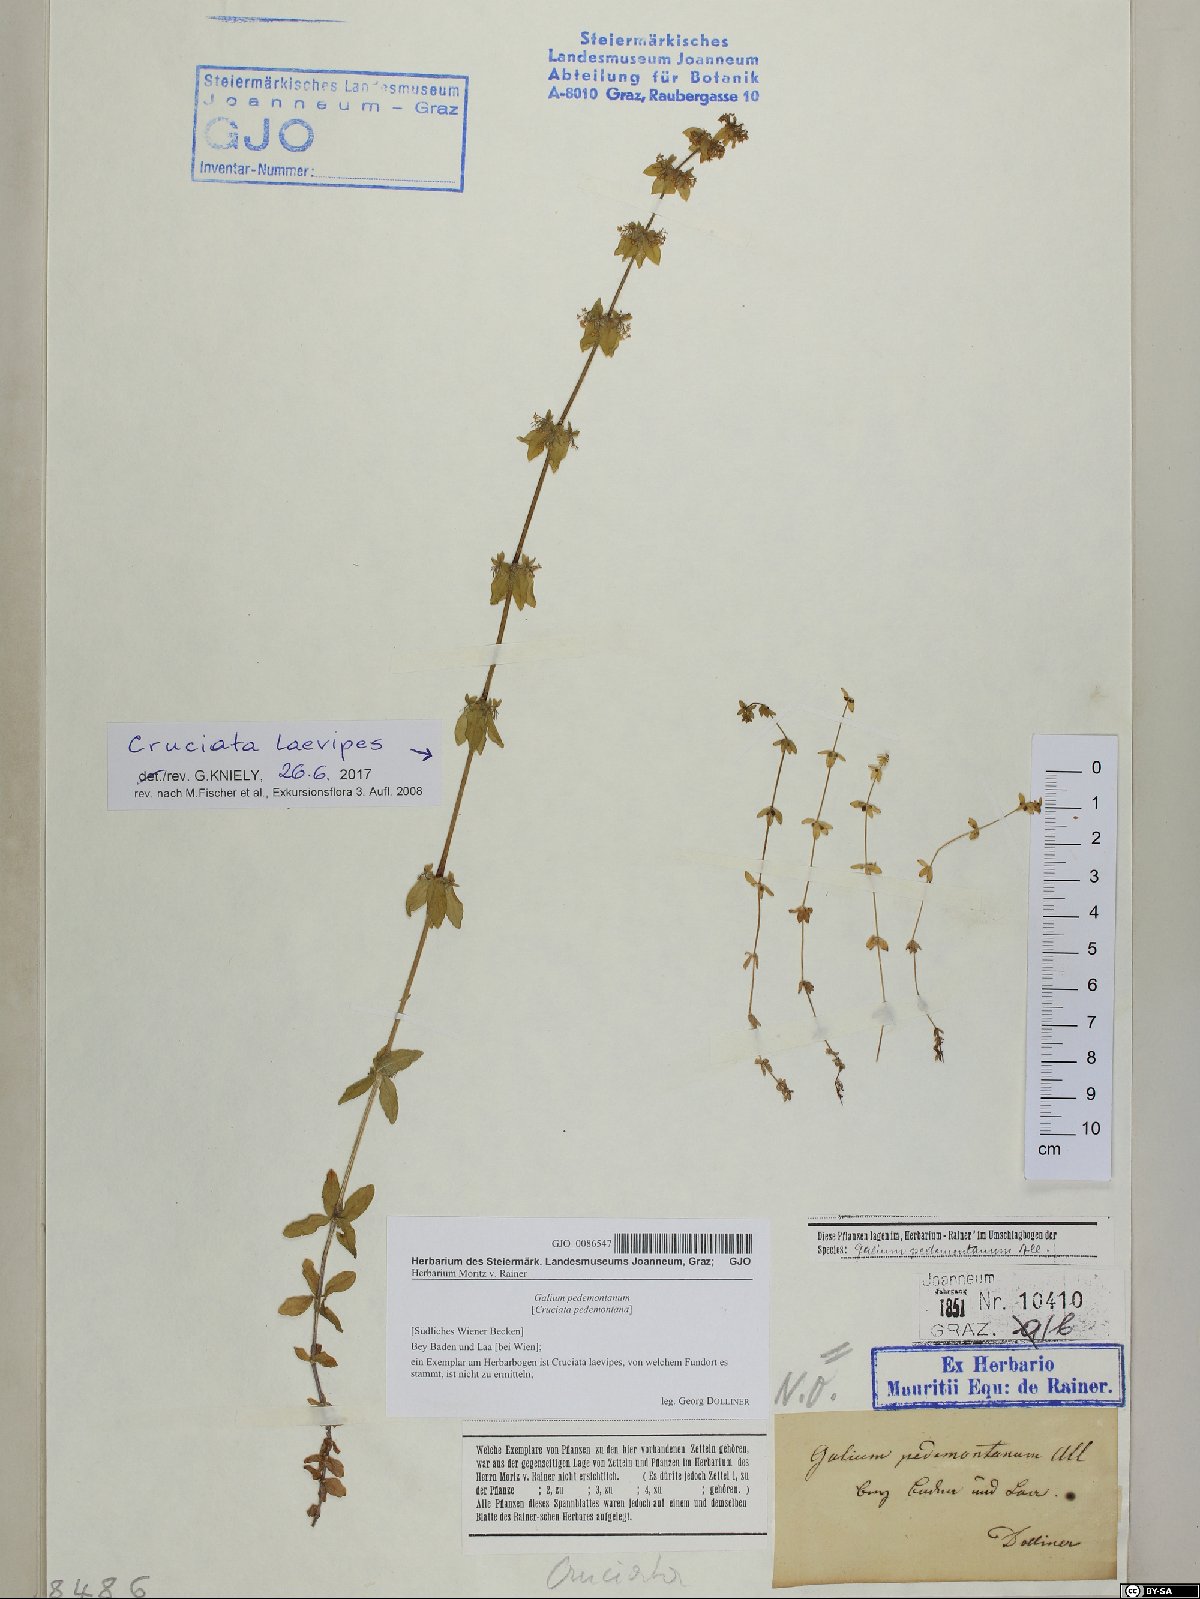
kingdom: Plantae
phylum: Tracheophyta
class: Magnoliopsida
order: Gentianales
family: Rubiaceae
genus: Cruciata
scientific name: Cruciata pedemontana
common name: Piedmont bedstraw
